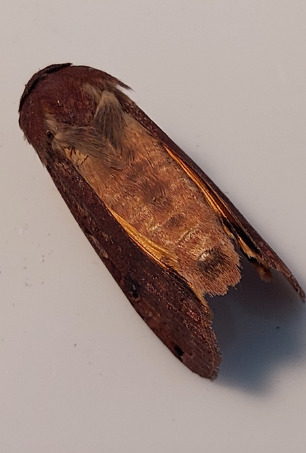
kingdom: Animalia
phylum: Arthropoda
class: Insecta
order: Lepidoptera
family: Noctuidae
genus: Noctua
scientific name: Noctua pronuba
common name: Stor smutugle
